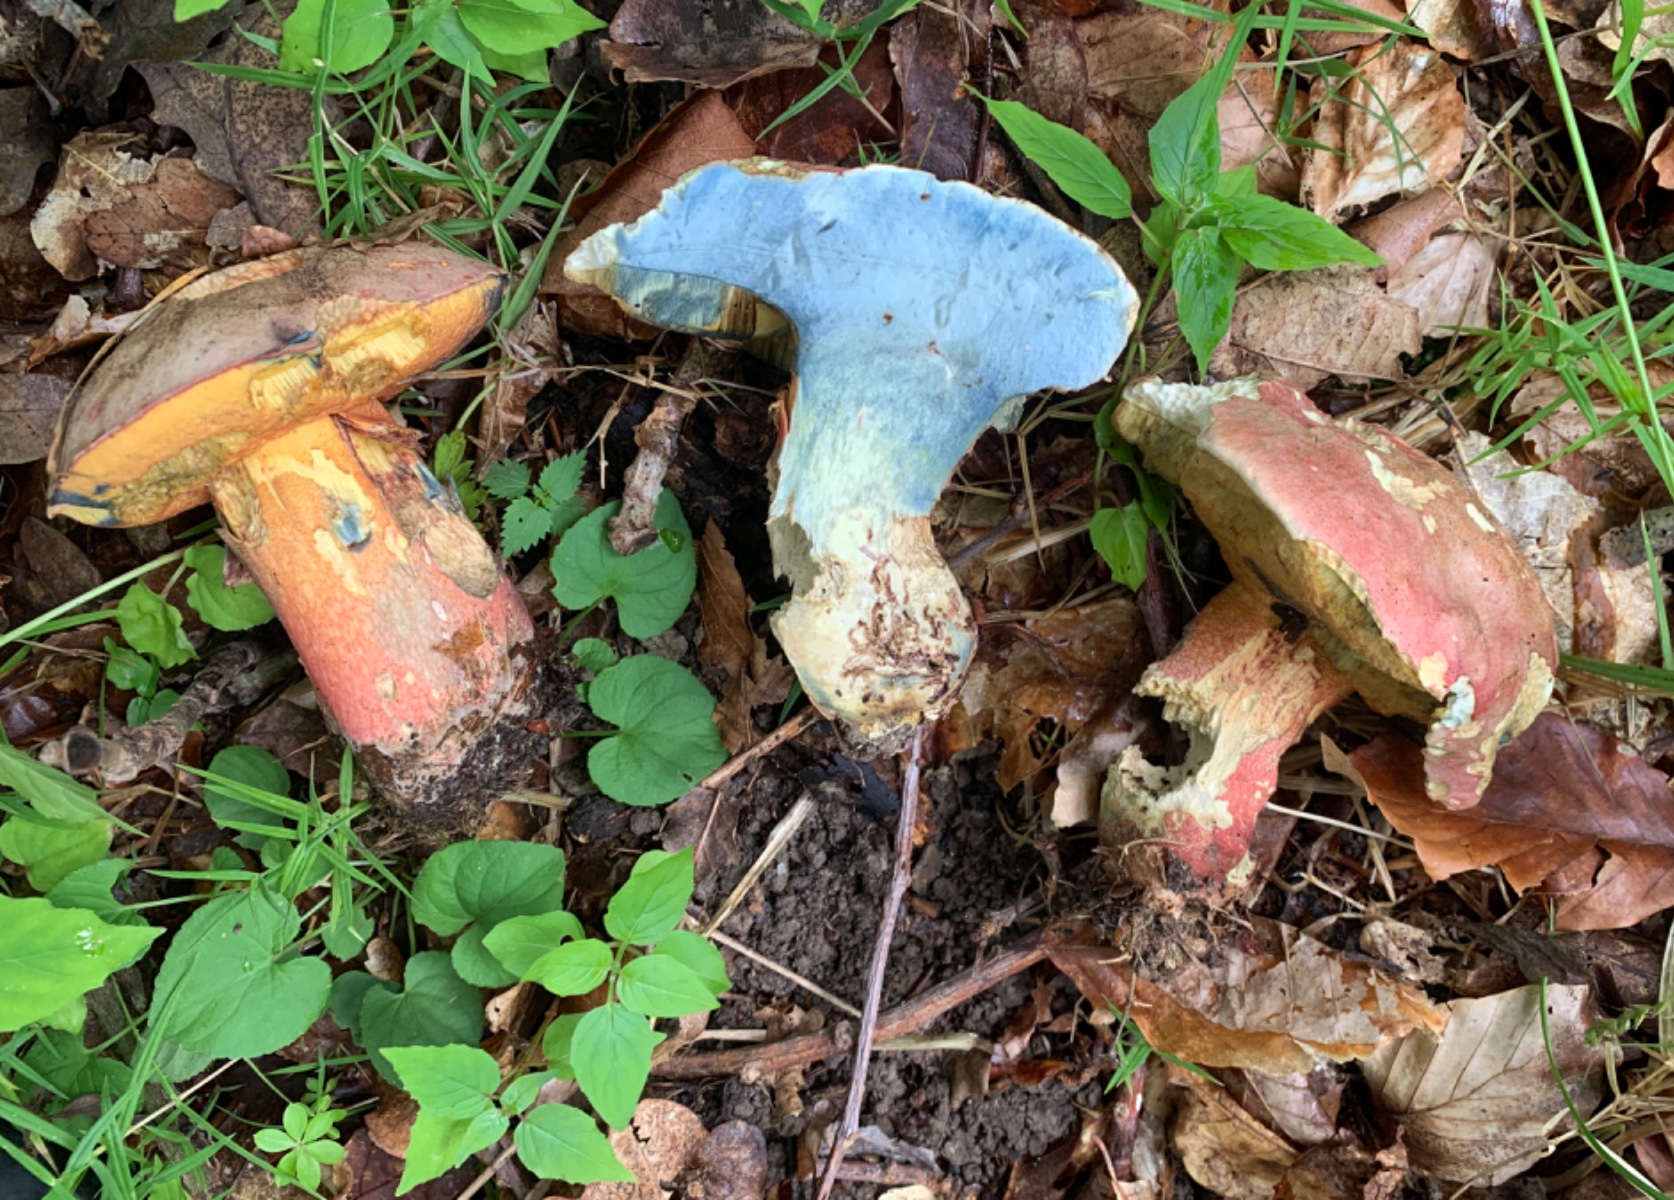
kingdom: Fungi
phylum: Basidiomycota
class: Agaricomycetes
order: Boletales
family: Boletaceae
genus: Rubroboletus
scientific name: Rubroboletus legaliae
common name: djævle-rørhat
